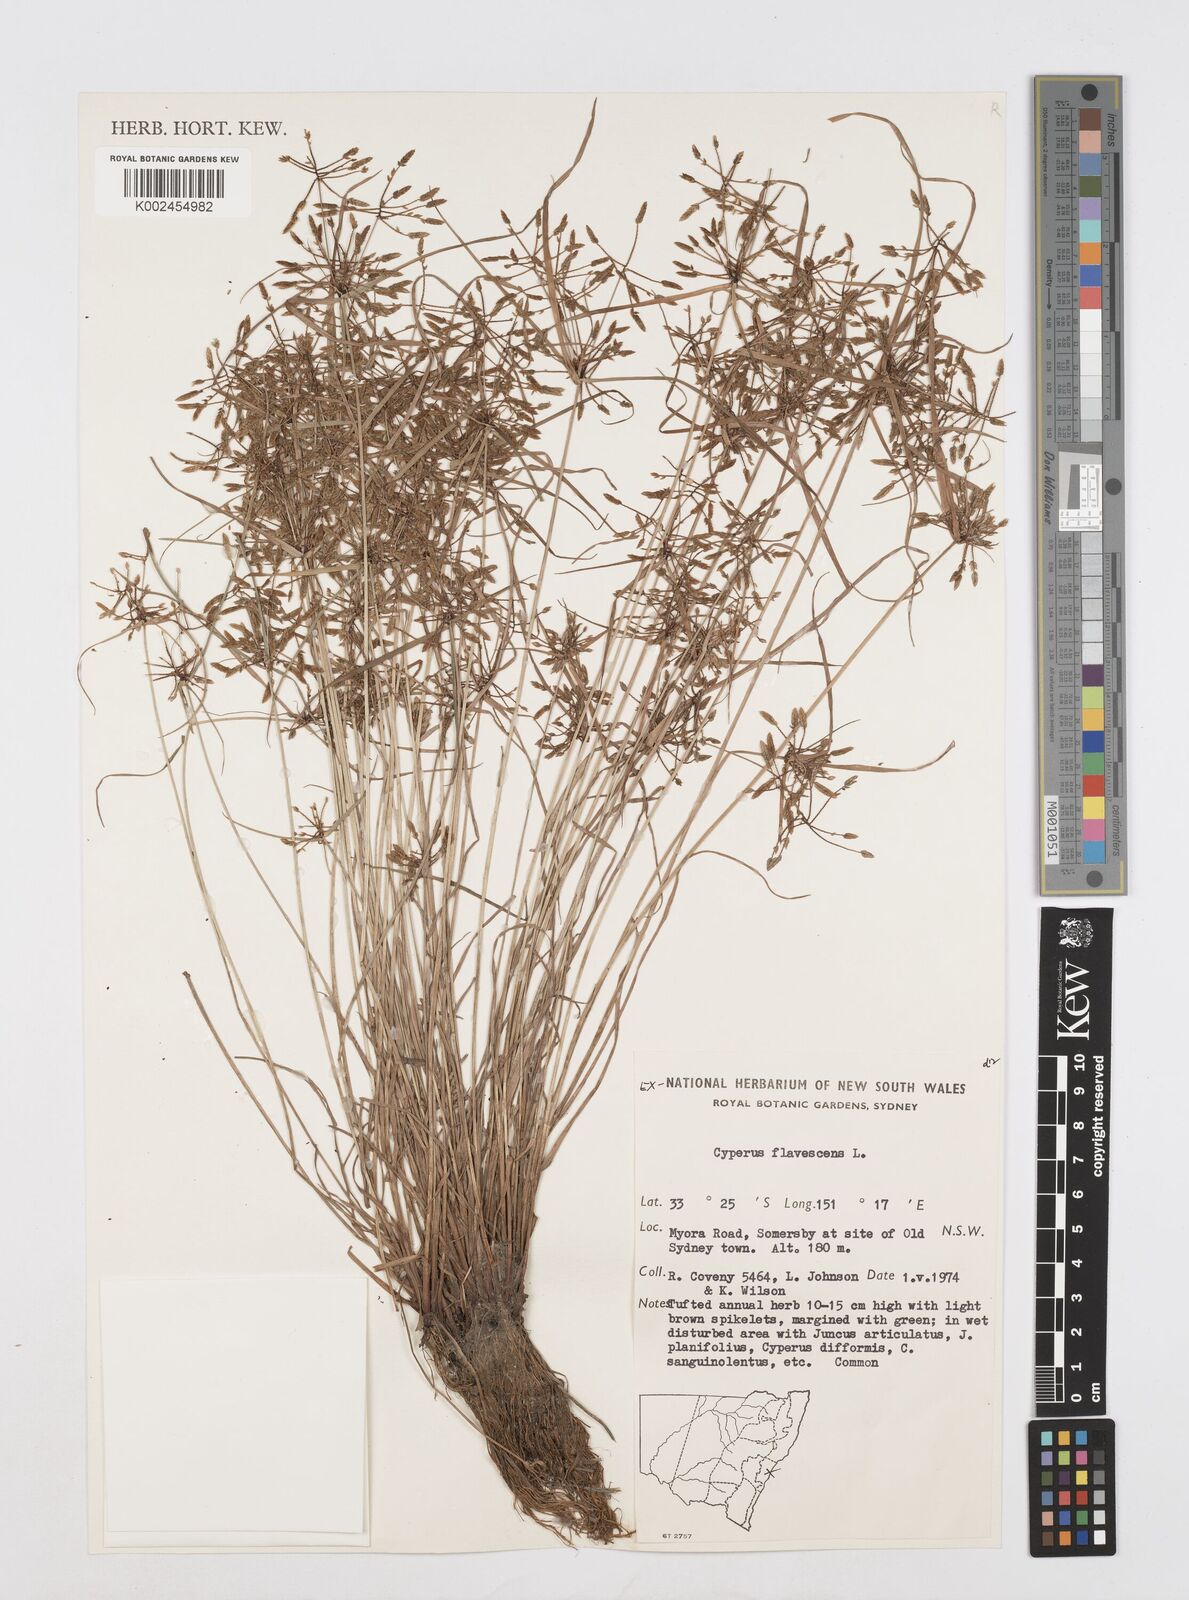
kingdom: Plantae
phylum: Tracheophyta
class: Liliopsida
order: Poales
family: Cyperaceae
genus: Cyperus
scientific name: Cyperus flavescens
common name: Yellow galingale
